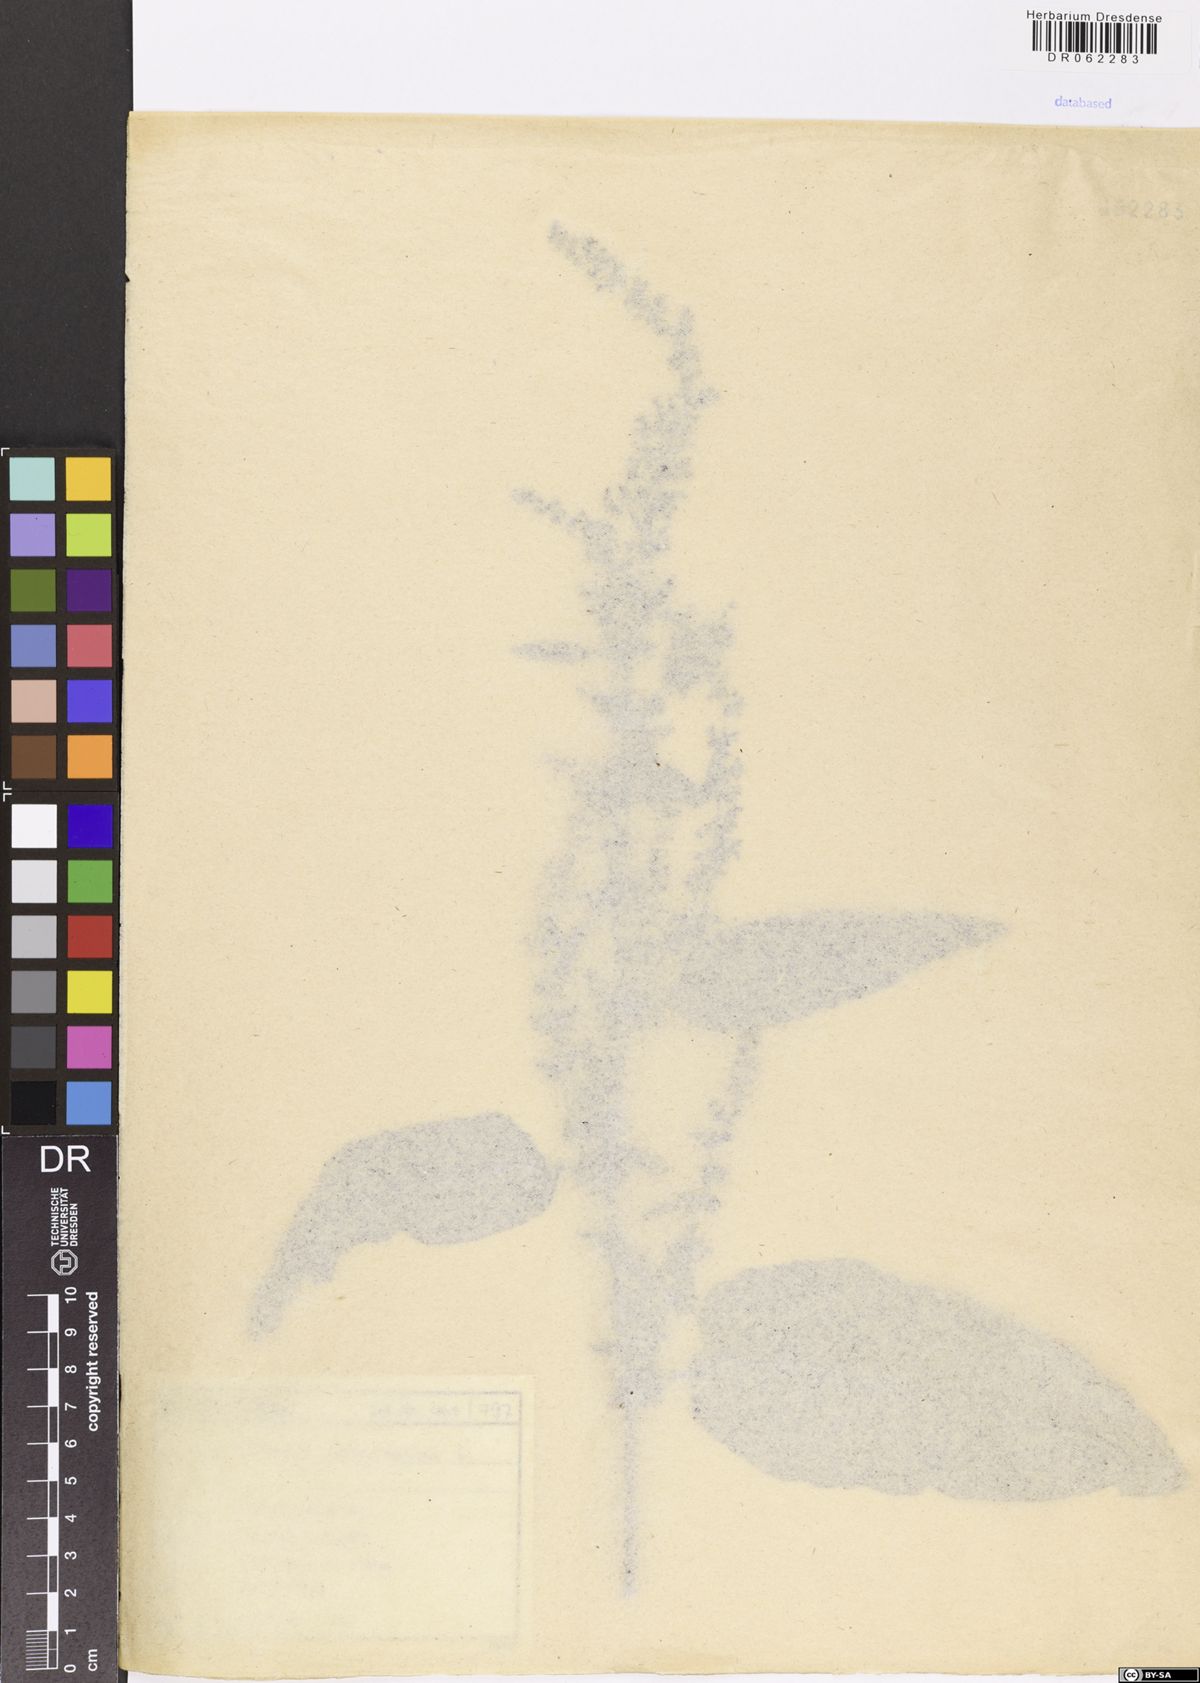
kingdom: Plantae
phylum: Tracheophyta
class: Magnoliopsida
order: Caryophyllales
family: Polygonaceae
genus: Rumex
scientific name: Rumex obtusifolius
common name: Bitter dock
